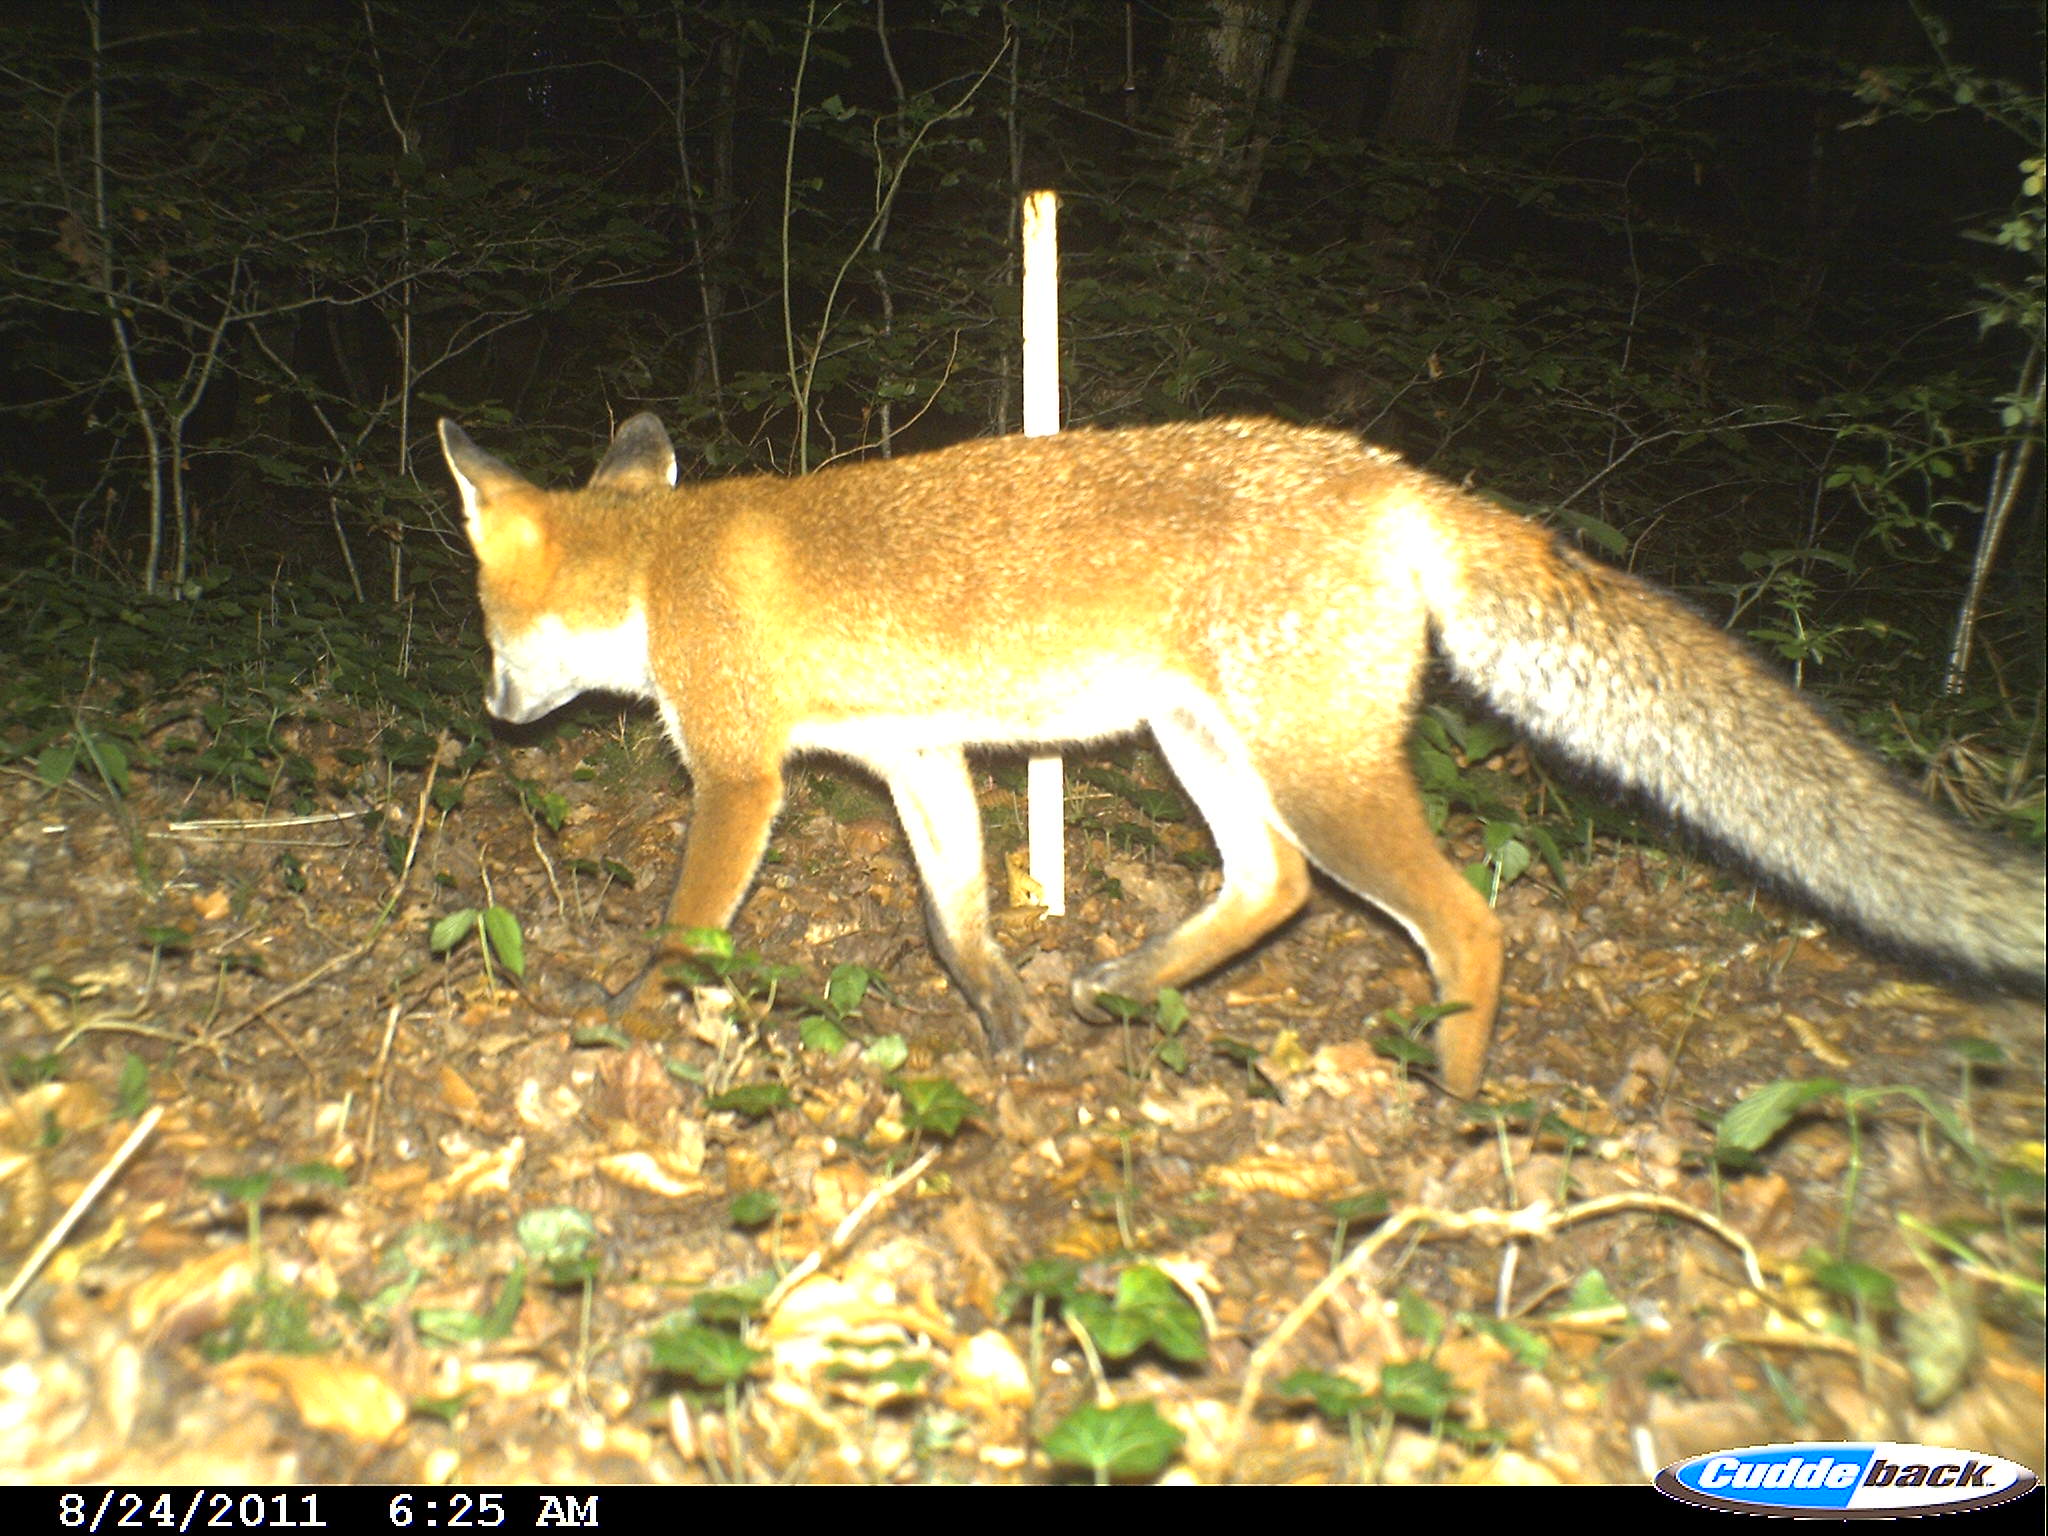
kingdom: Animalia
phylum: Chordata
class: Mammalia
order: Carnivora
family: Canidae
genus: Vulpes
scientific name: Vulpes vulpes
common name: Red fox
